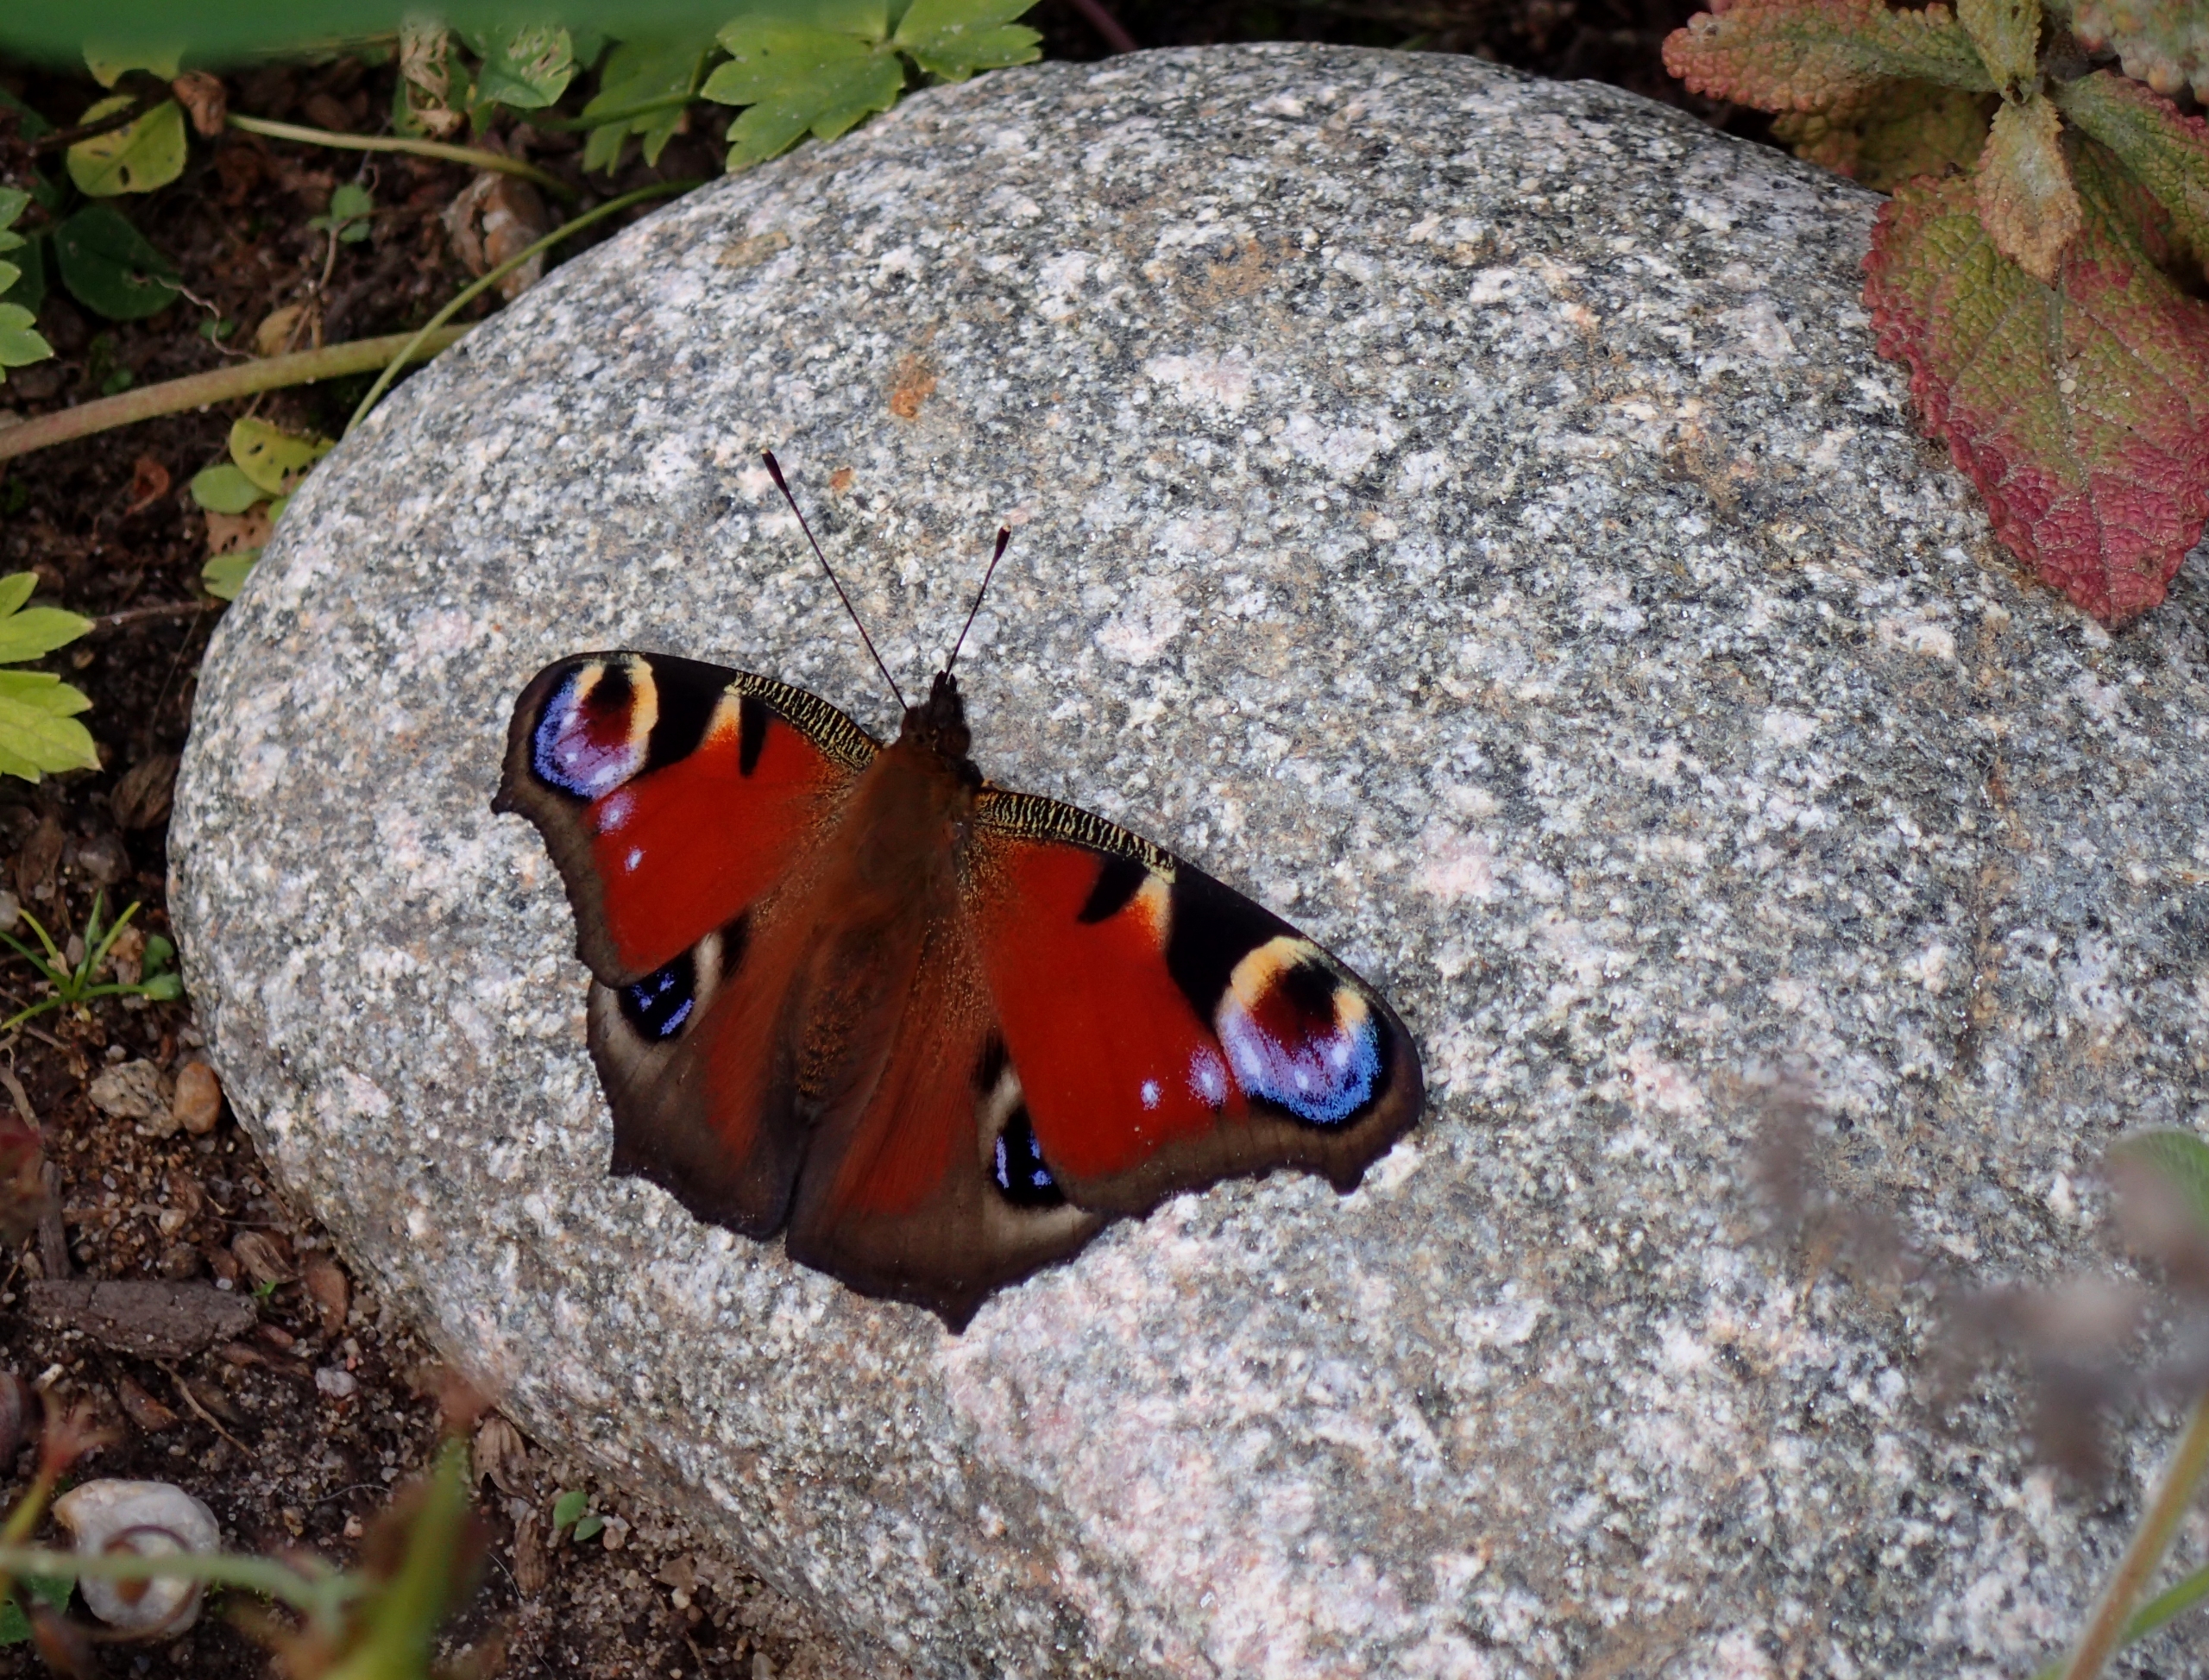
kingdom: Animalia
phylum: Arthropoda
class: Insecta
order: Lepidoptera
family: Nymphalidae
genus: Aglais
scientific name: Aglais io
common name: Dagpåfugleøje
